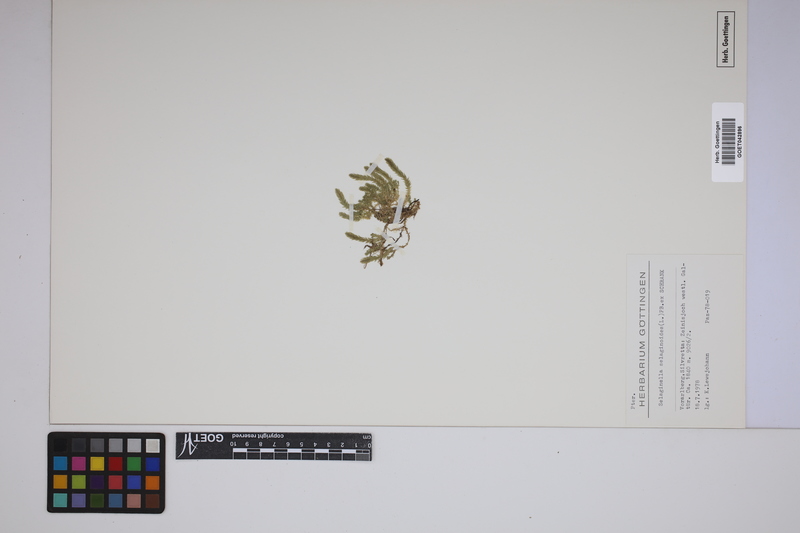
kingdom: Plantae
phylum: Tracheophyta
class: Lycopodiopsida
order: Selaginellales
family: Selaginellaceae
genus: Selaginella
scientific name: Selaginella selaginoides
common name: Prickly mountain-moss
